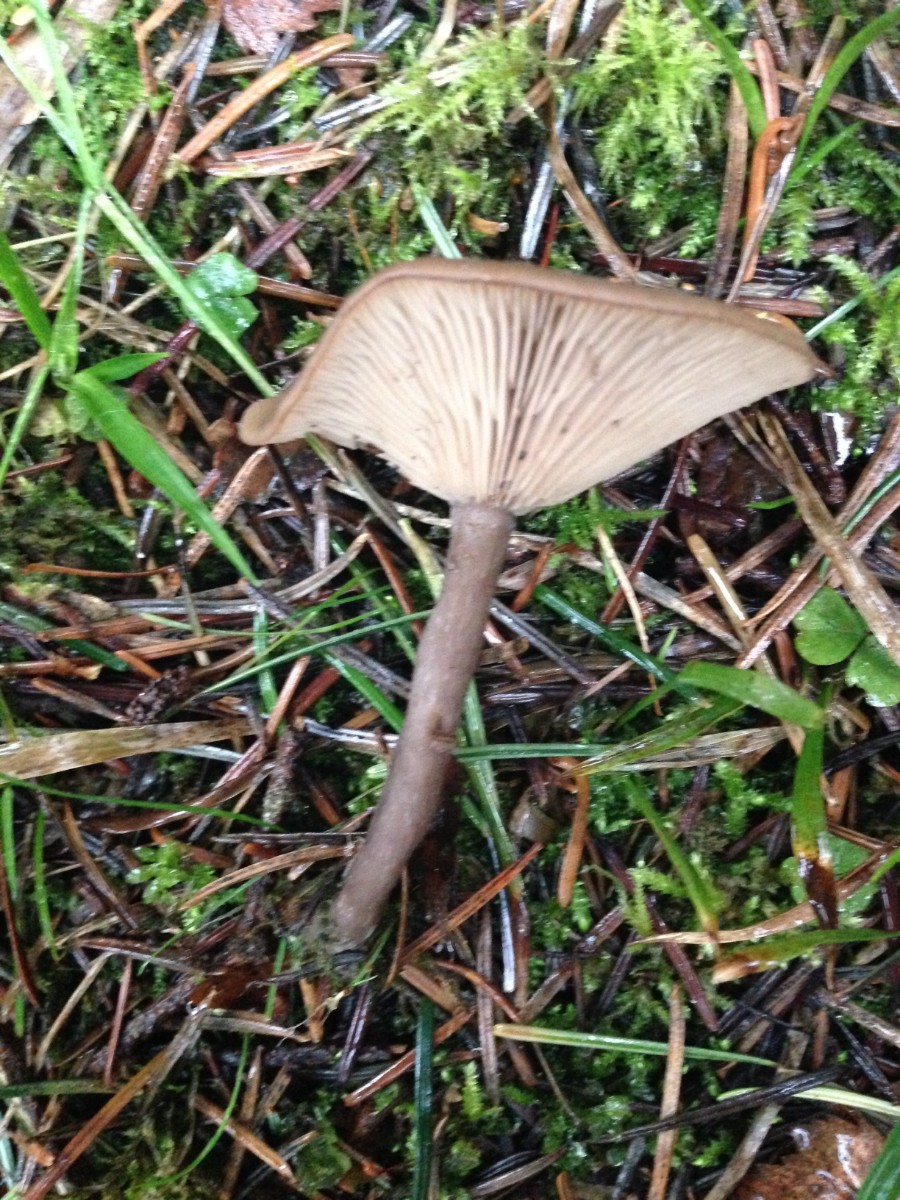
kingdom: Fungi
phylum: Basidiomycota
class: Agaricomycetes
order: Agaricales
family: Pseudoclitocybaceae
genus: Pseudoclitocybe
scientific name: Pseudoclitocybe cyathiformis
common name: almindelig bægertragthat
